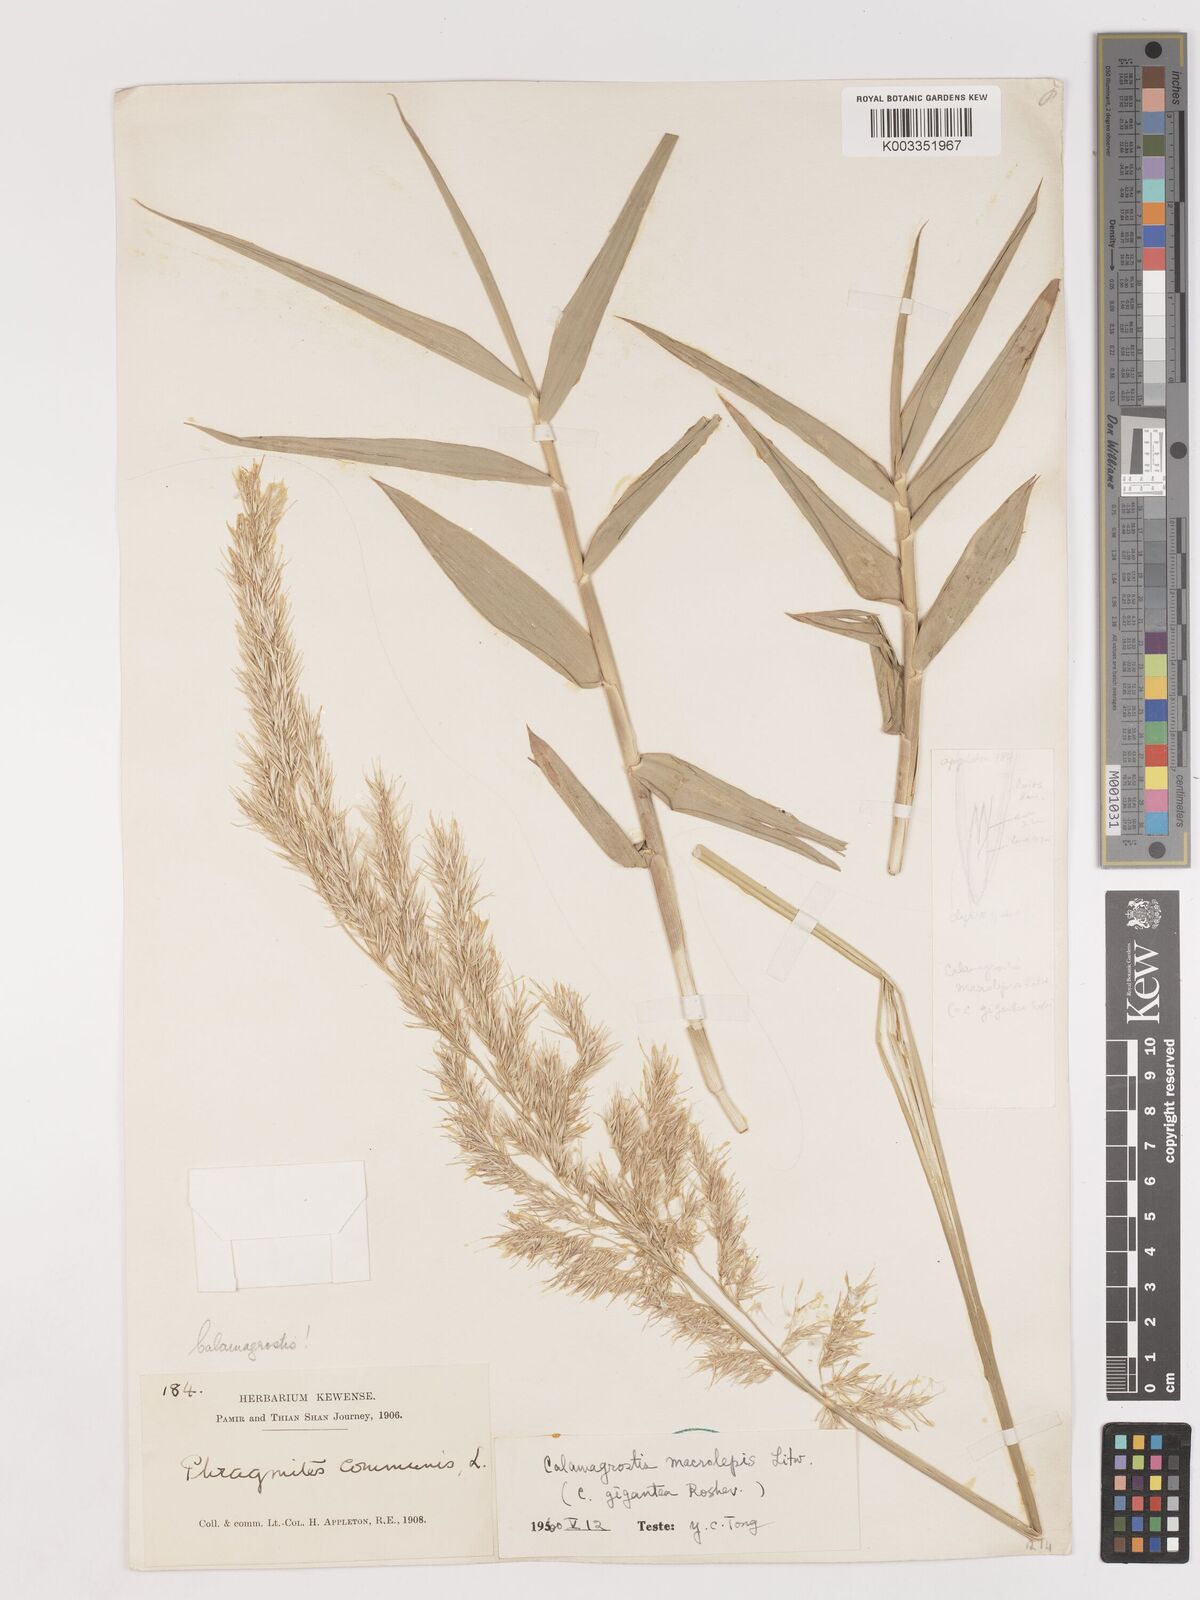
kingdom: Plantae
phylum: Tracheophyta
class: Liliopsida
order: Poales
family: Poaceae
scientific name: Poaceae
